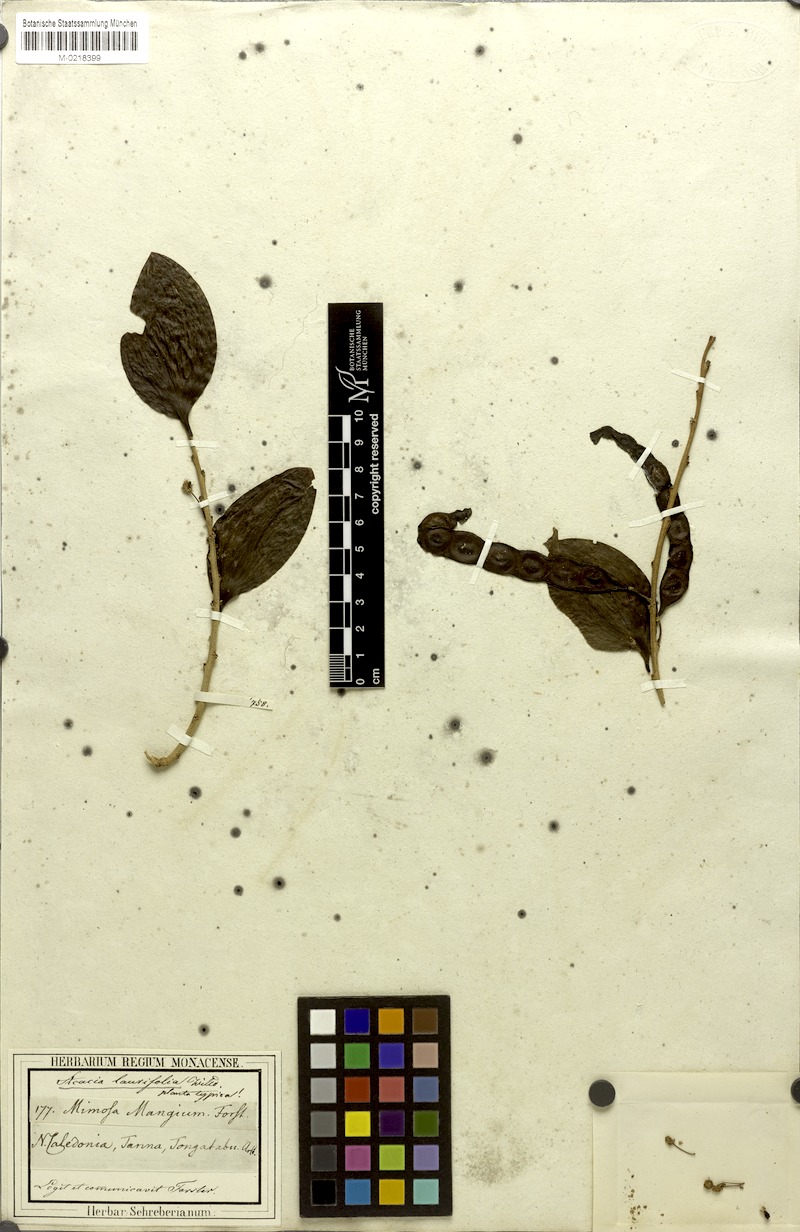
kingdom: Plantae
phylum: Tracheophyta
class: Magnoliopsida
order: Fabales
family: Fabaceae
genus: Acacia
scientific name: Acacia simplex
